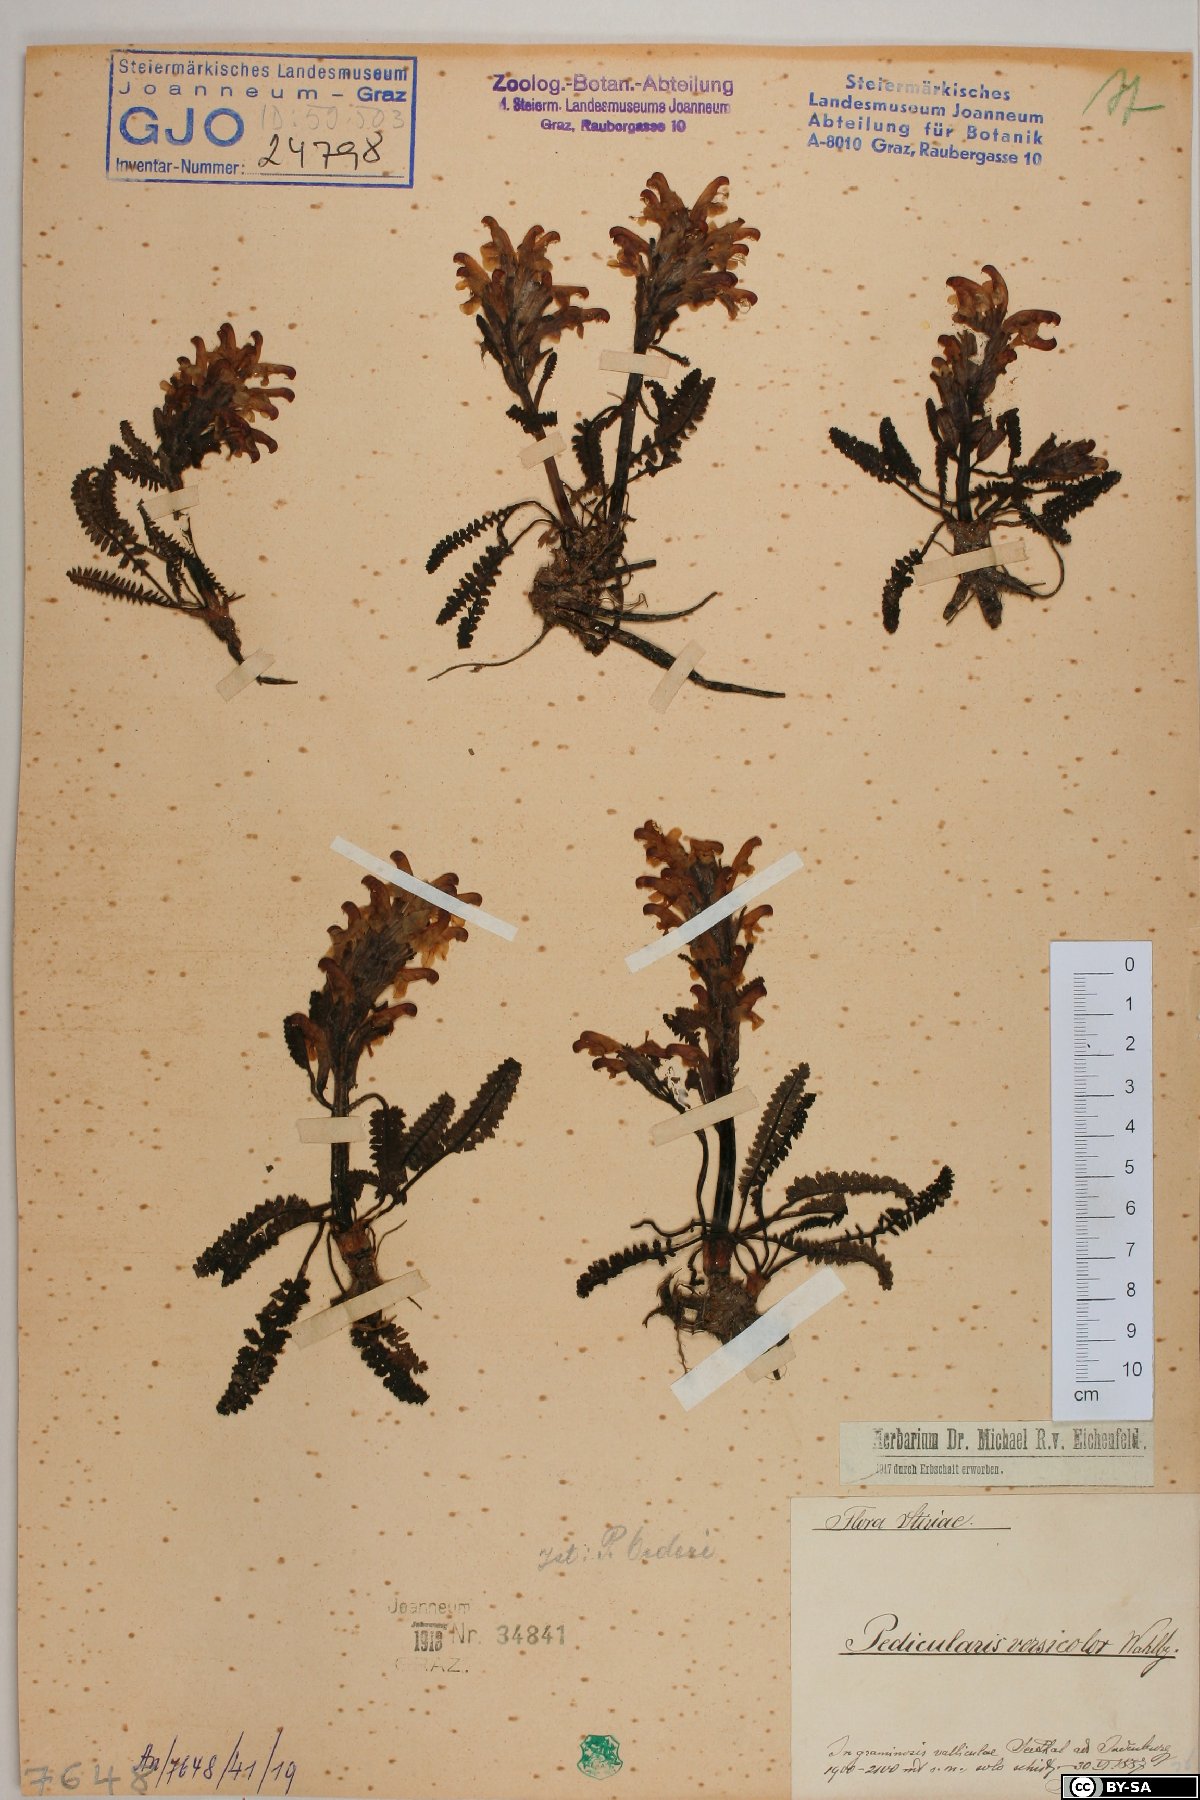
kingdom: Plantae
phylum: Tracheophyta
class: Magnoliopsida
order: Lamiales
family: Orobanchaceae
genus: Pedicularis
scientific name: Pedicularis oederi
